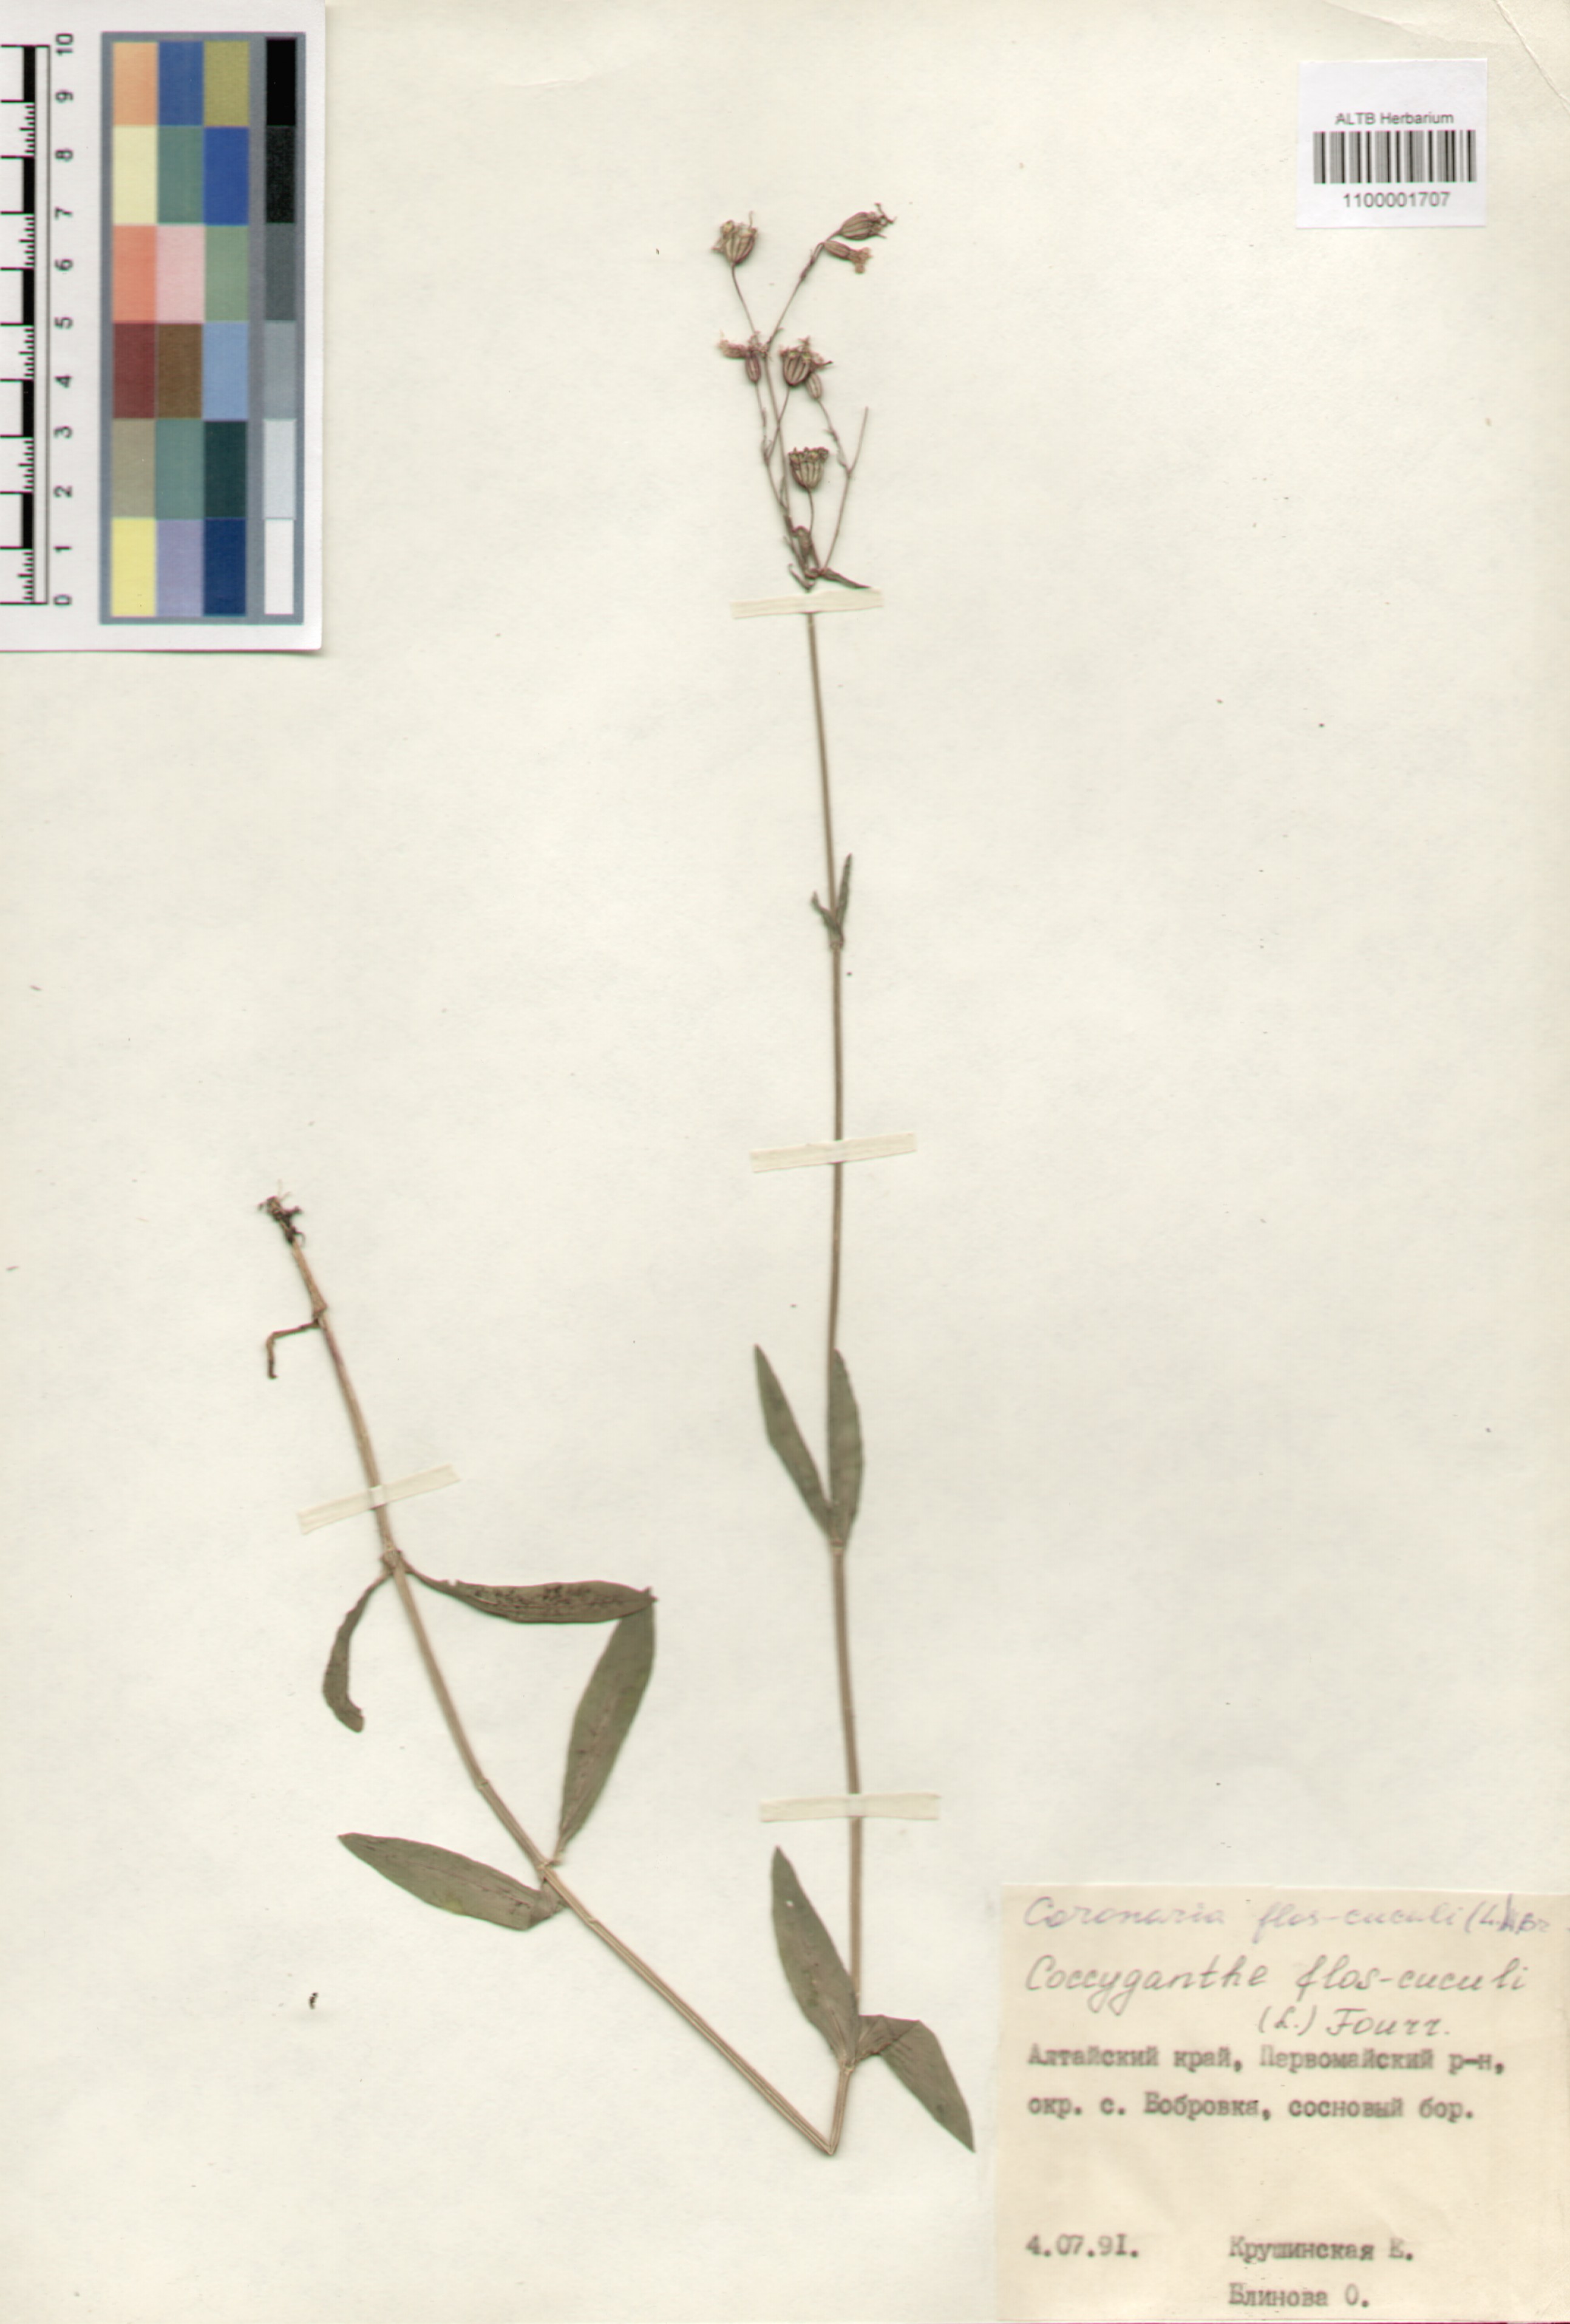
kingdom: Plantae
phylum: Tracheophyta
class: Magnoliopsida
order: Caryophyllales
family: Caryophyllaceae
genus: Silene
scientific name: Silene flos-cuculi
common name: Ragged-robin
